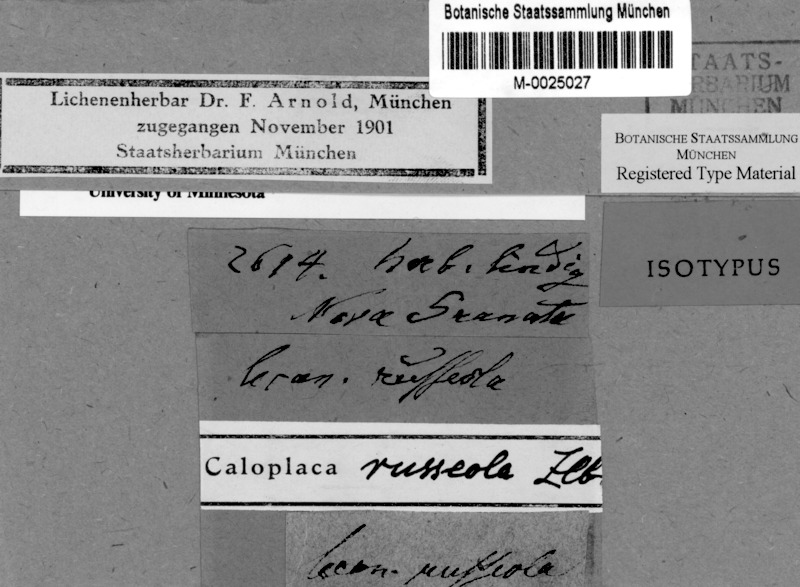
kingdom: Fungi
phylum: Ascomycota
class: Lecanoromycetes
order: Teloschistales
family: Teloschistaceae
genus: Caloplaca
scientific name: Caloplaca russeola
